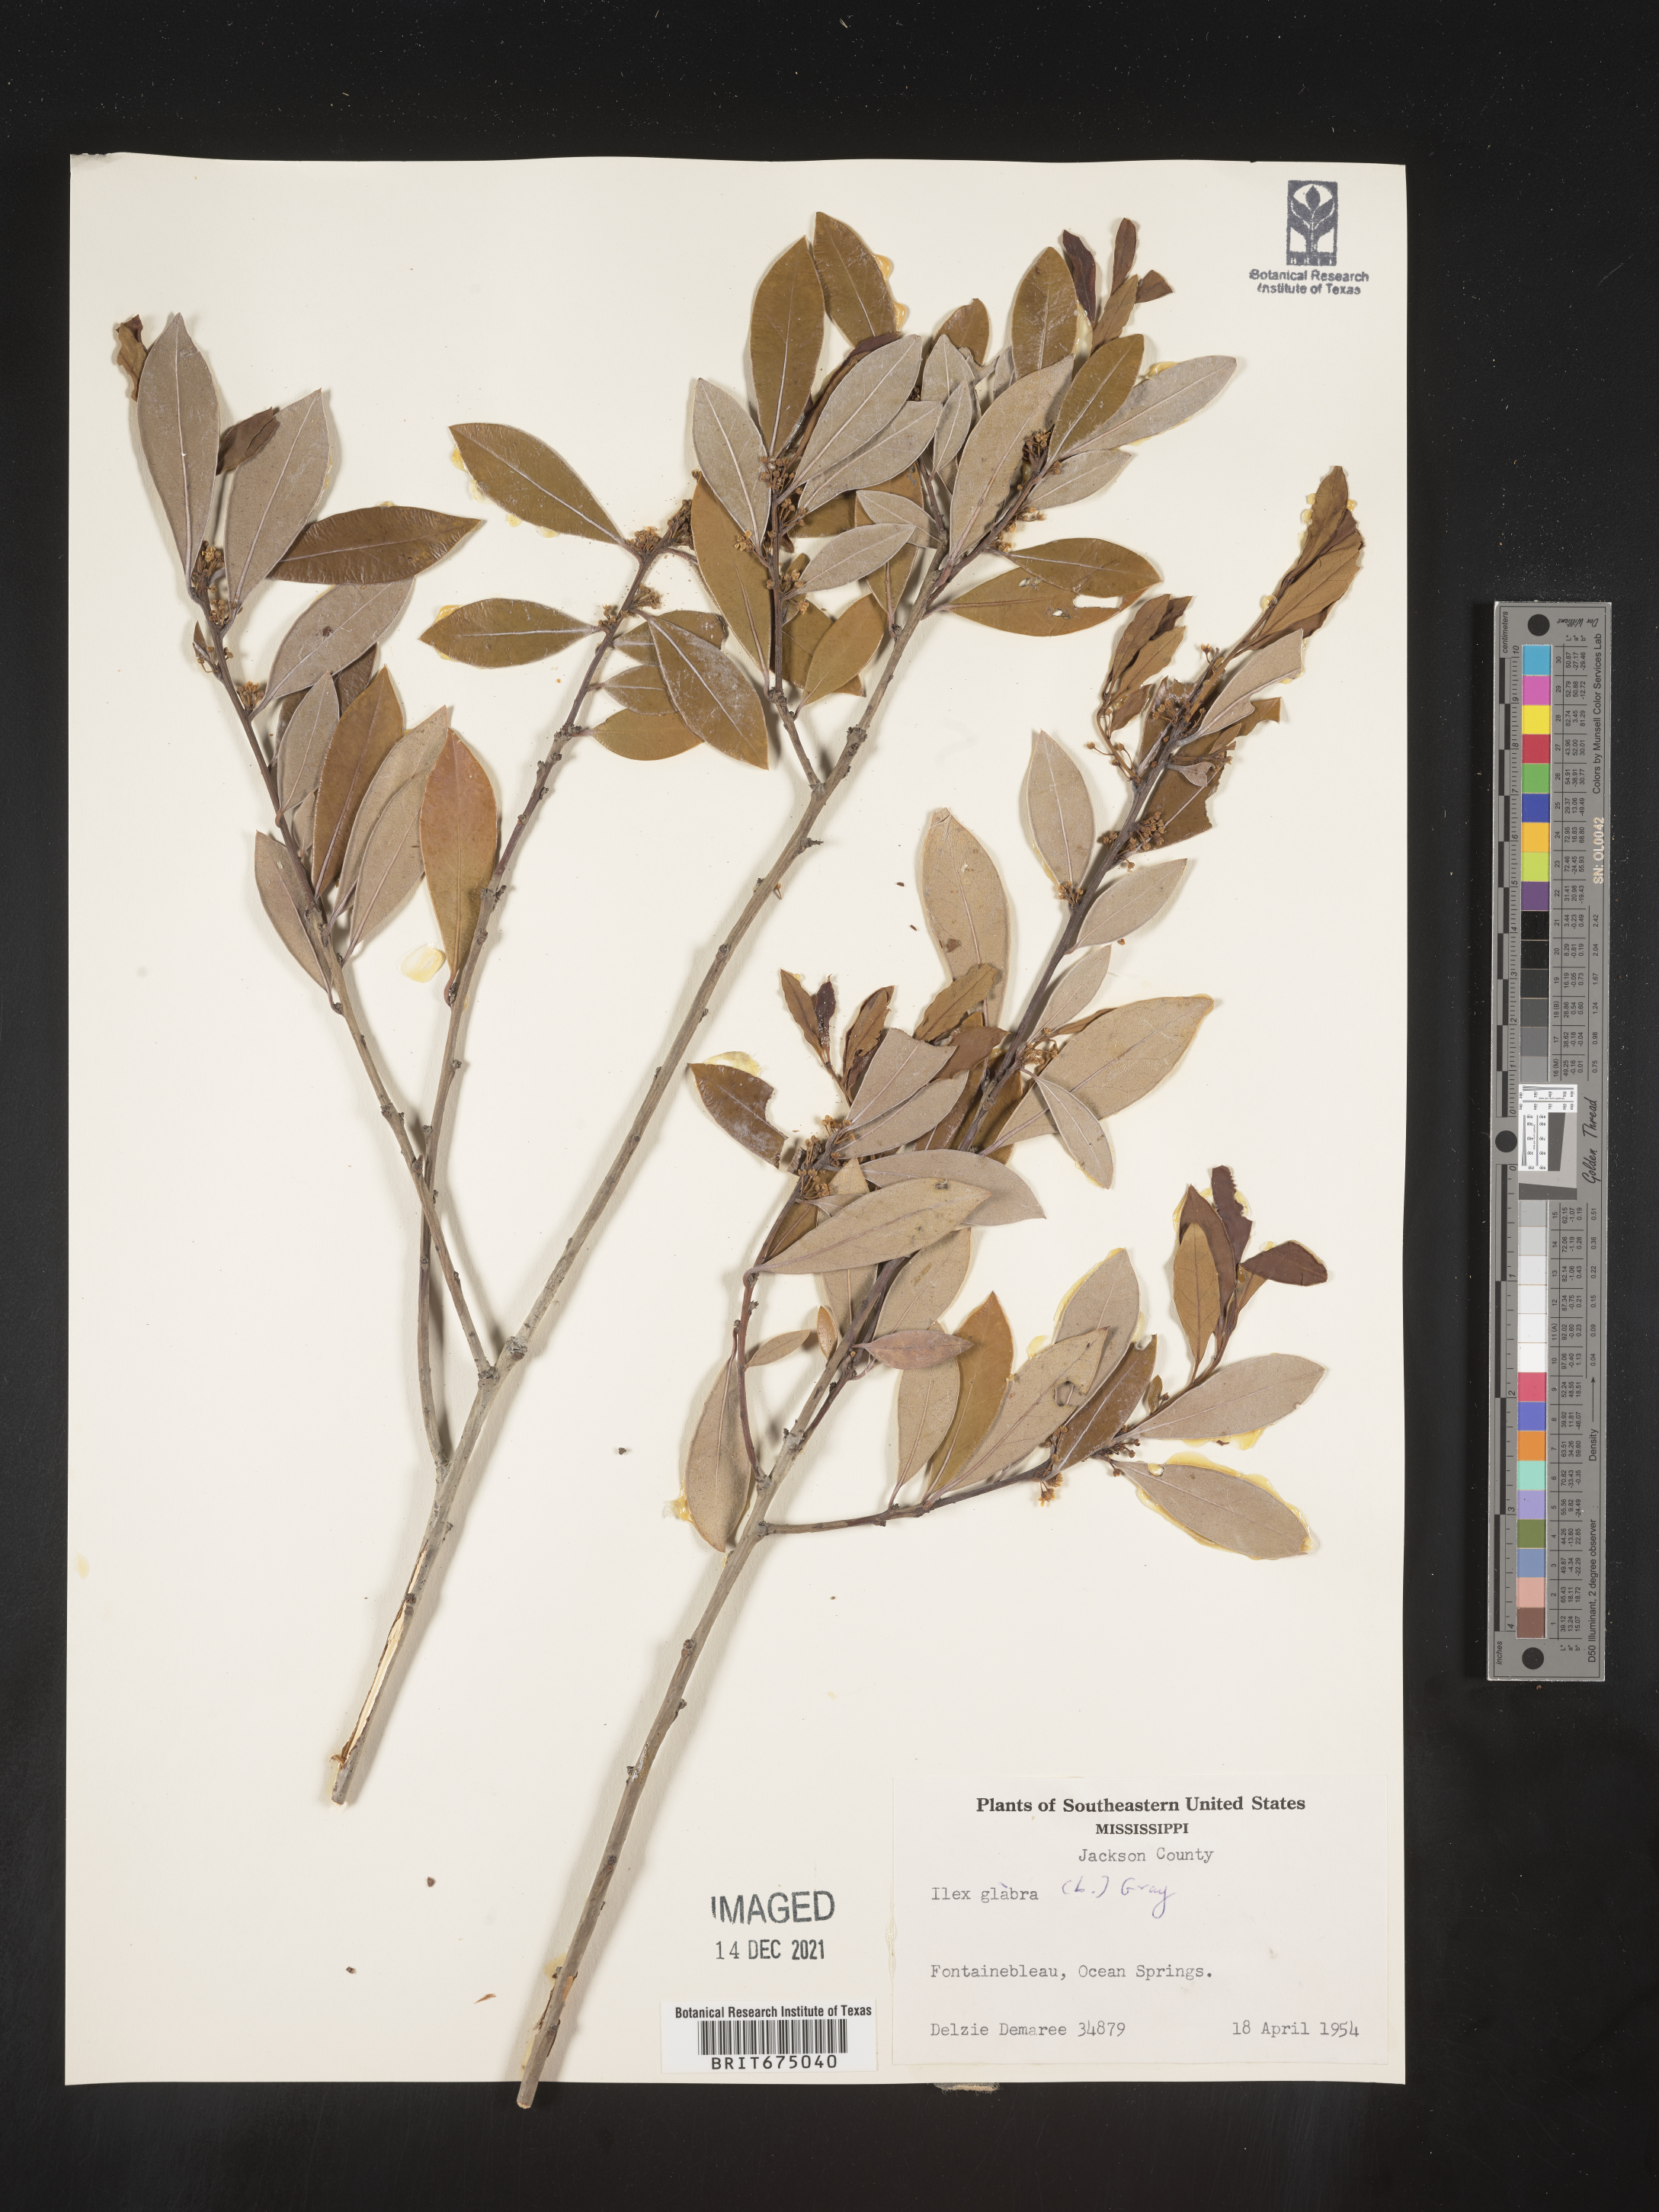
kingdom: Plantae
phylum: Tracheophyta
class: Magnoliopsida
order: Aquifoliales
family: Aquifoliaceae
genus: Ilex
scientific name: Ilex glabra
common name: Bitter gallberry
